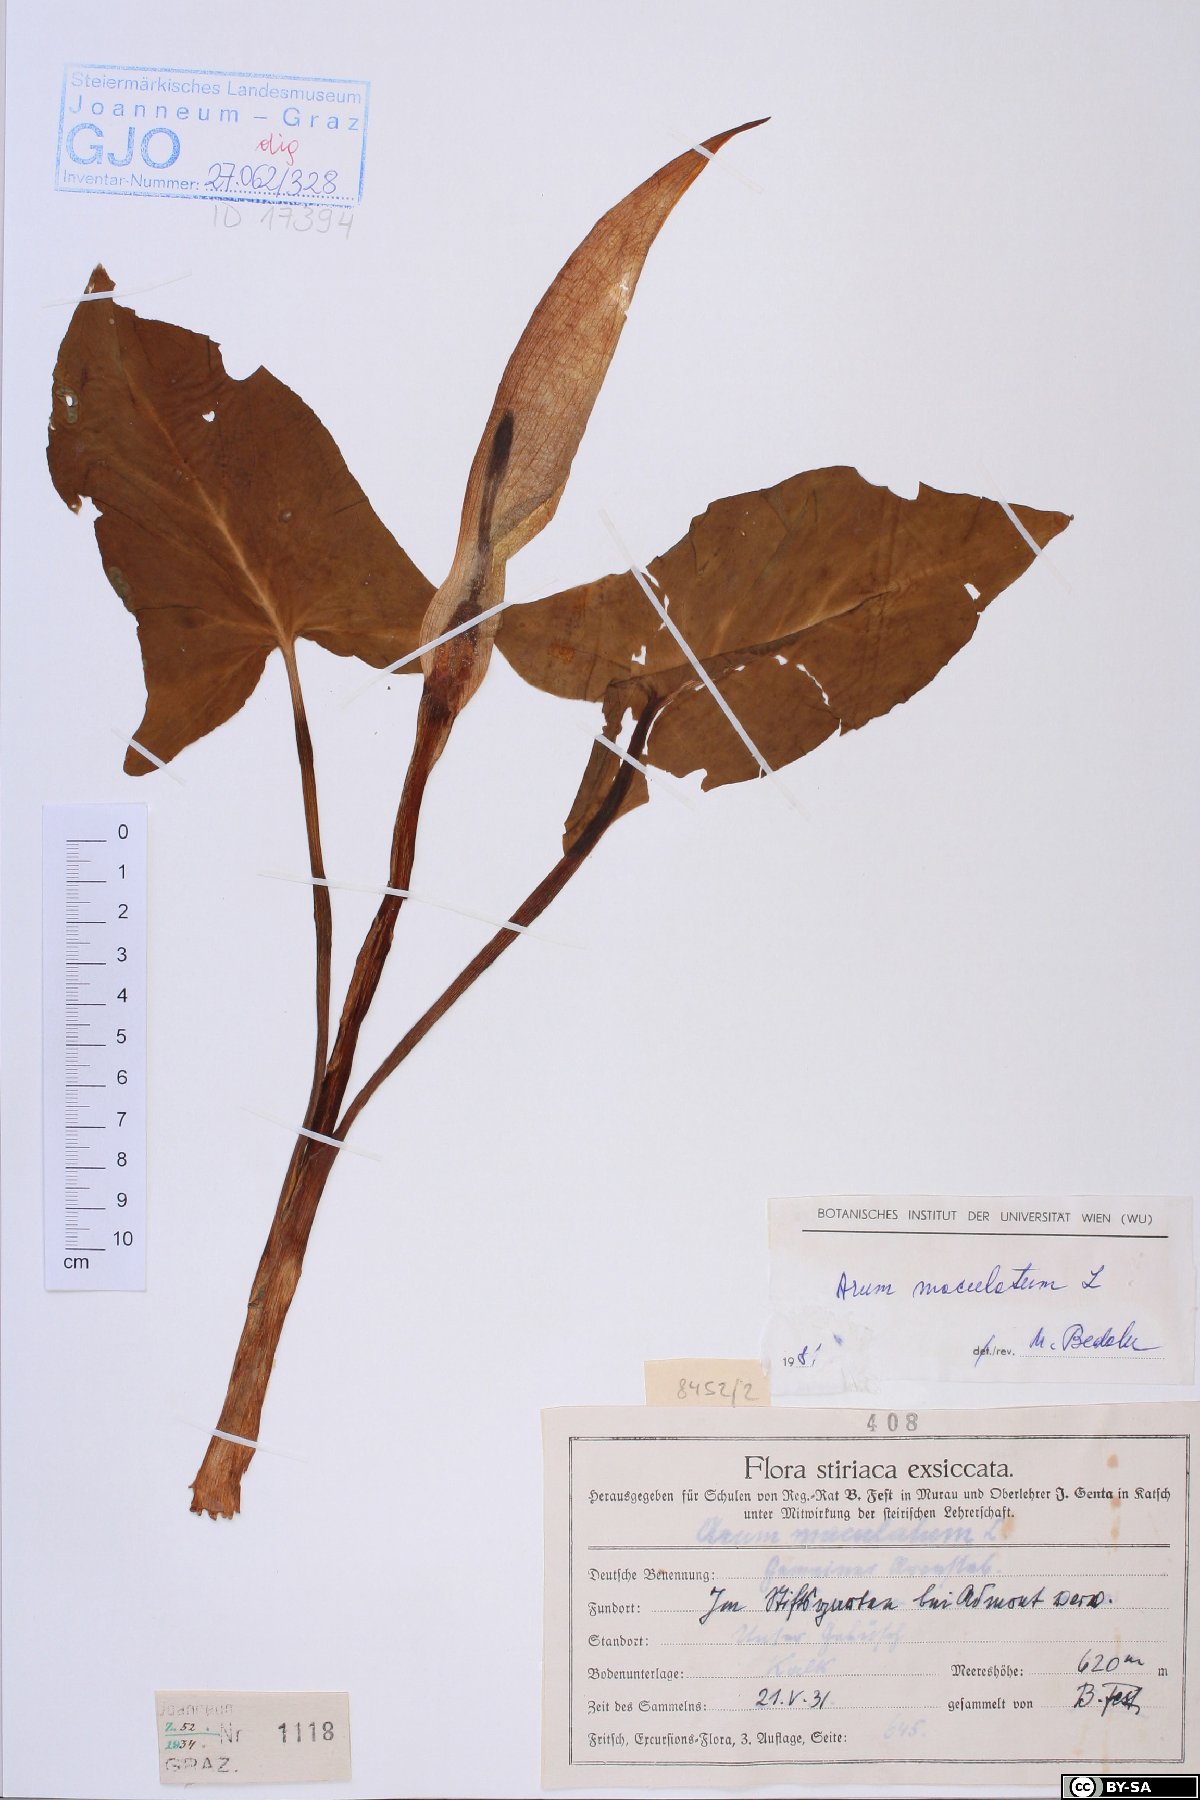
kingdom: Plantae
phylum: Tracheophyta
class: Liliopsida
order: Alismatales
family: Araceae
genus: Arum
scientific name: Arum maculatum
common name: Lords-and-ladies
